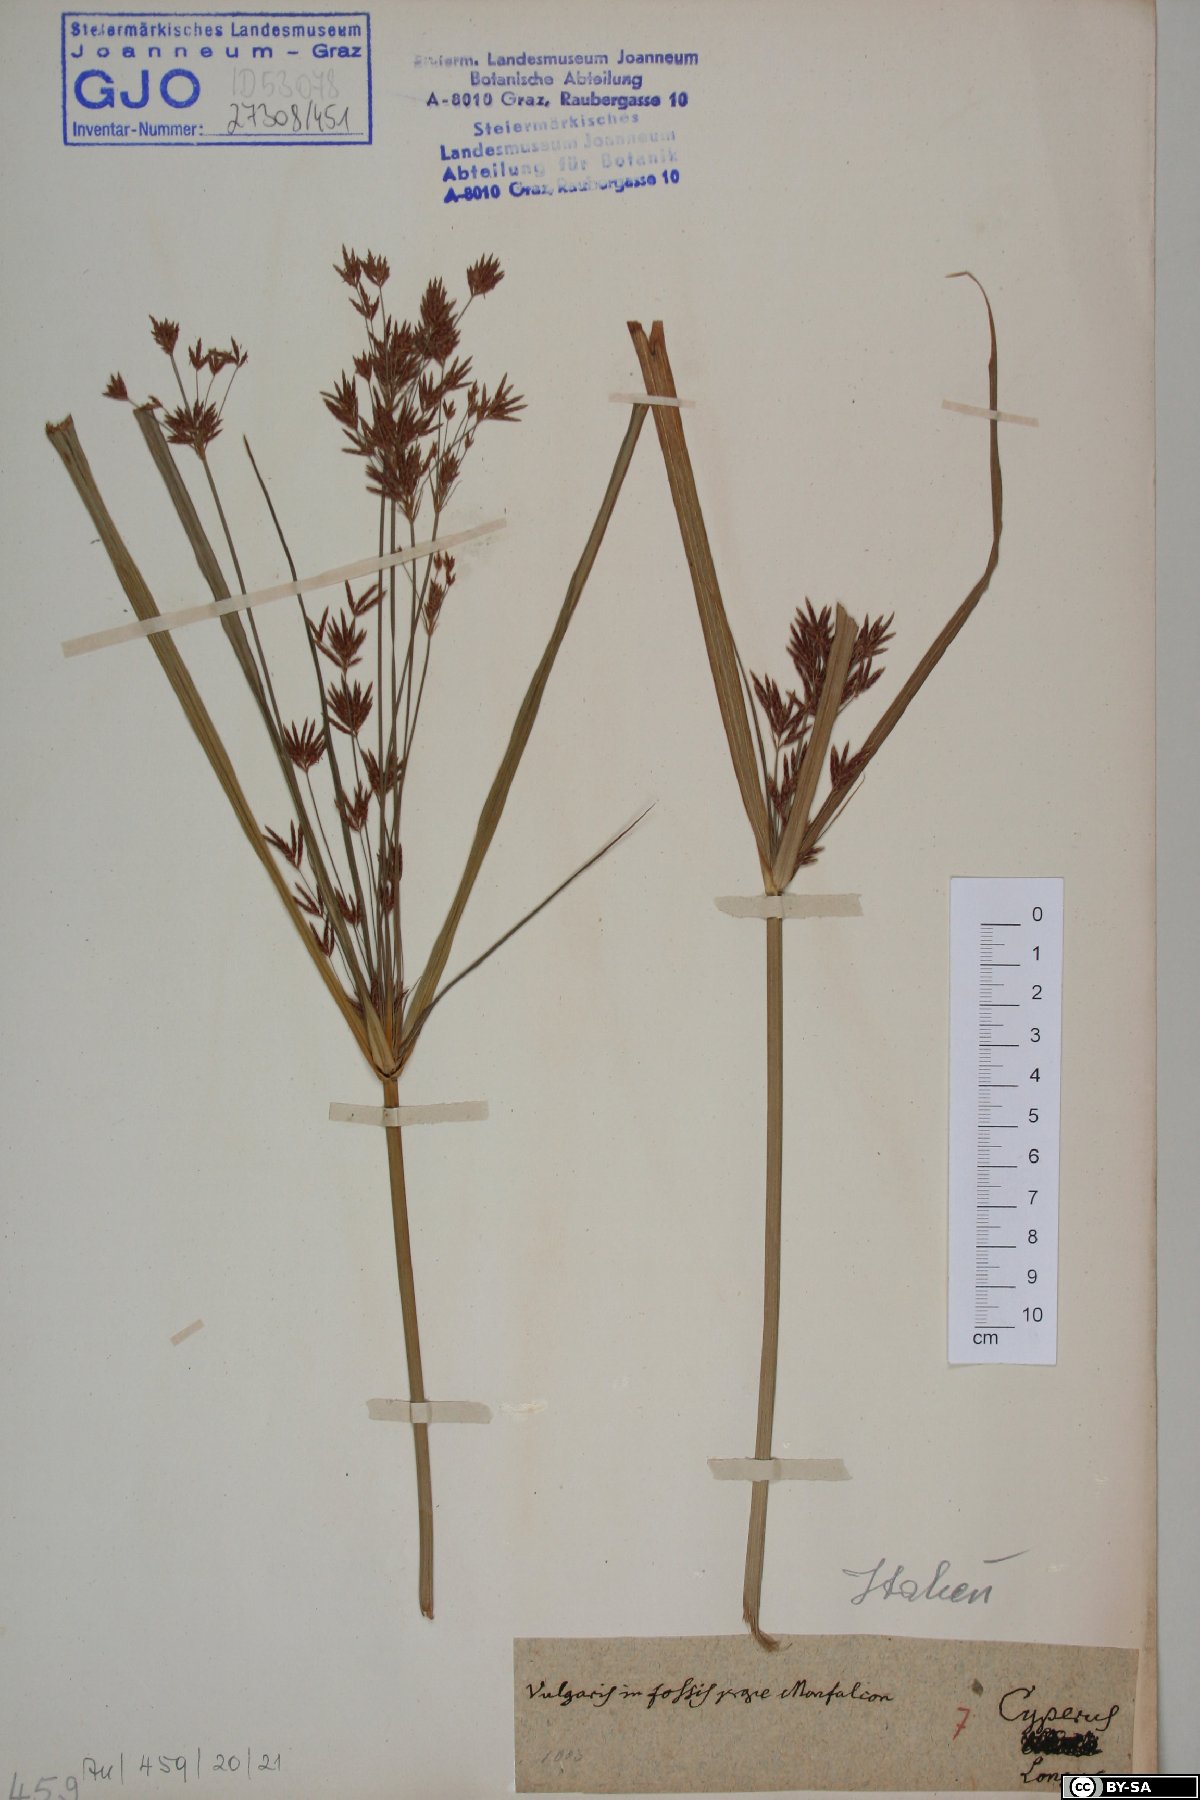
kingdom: Plantae
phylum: Tracheophyta
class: Liliopsida
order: Poales
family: Cyperaceae
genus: Cyperus
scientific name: Cyperus longus
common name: Galingale
